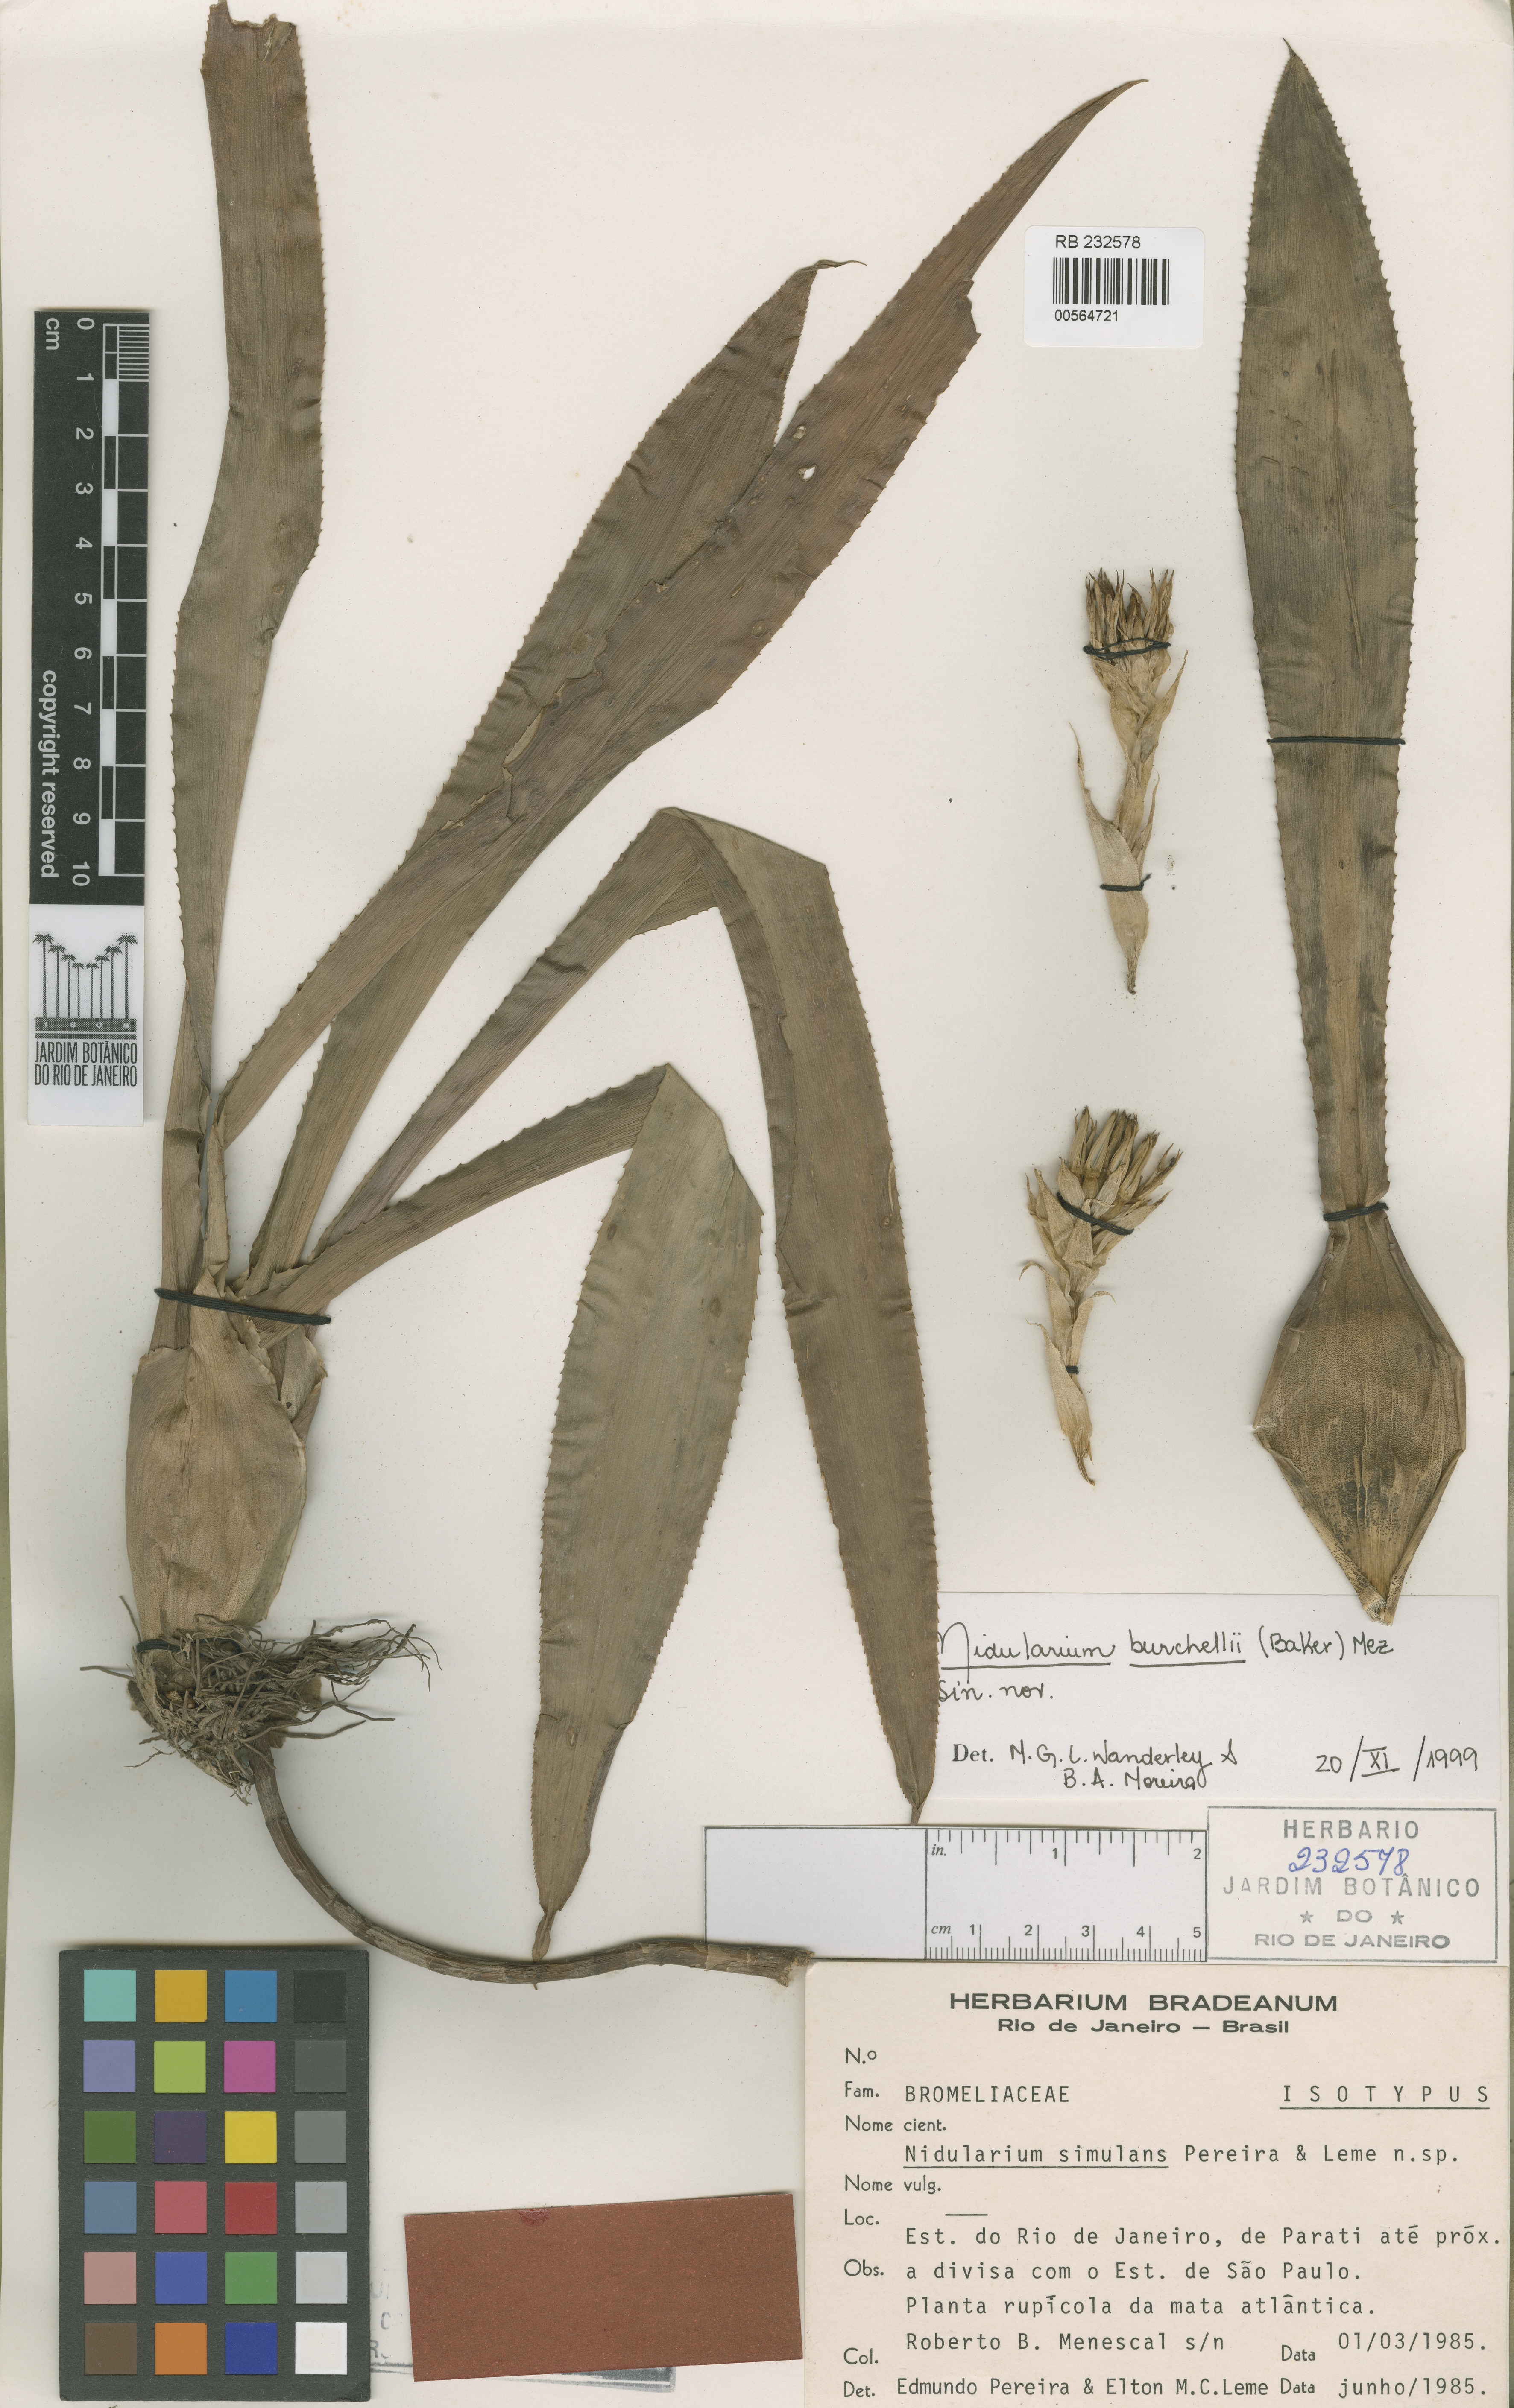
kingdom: Plantae
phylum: Tracheophyta
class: Liliopsida
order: Poales
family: Bromeliaceae
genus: Canistropsis
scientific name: Canistropsis burchellii
